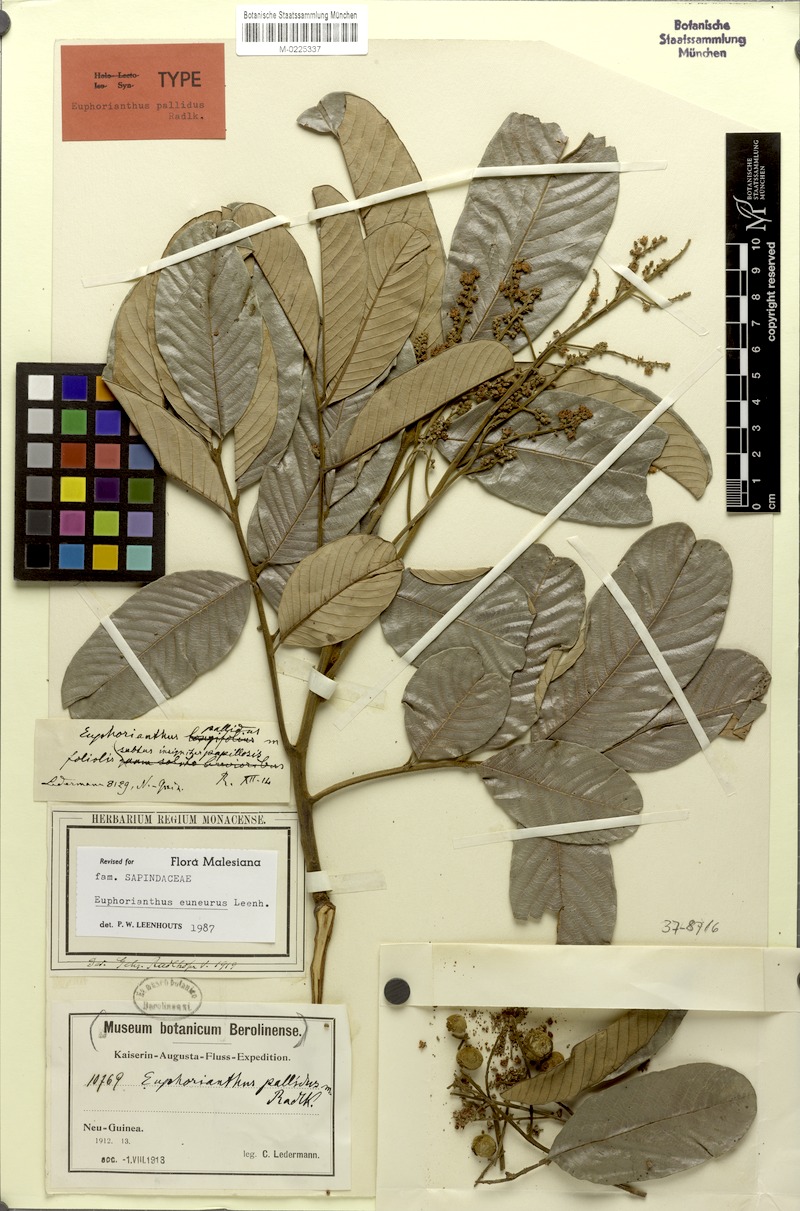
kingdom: Plantae
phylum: Tracheophyta
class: Magnoliopsida
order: Sapindales
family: Sapindaceae
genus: Euphorianthus
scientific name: Euphorianthus euneurus
